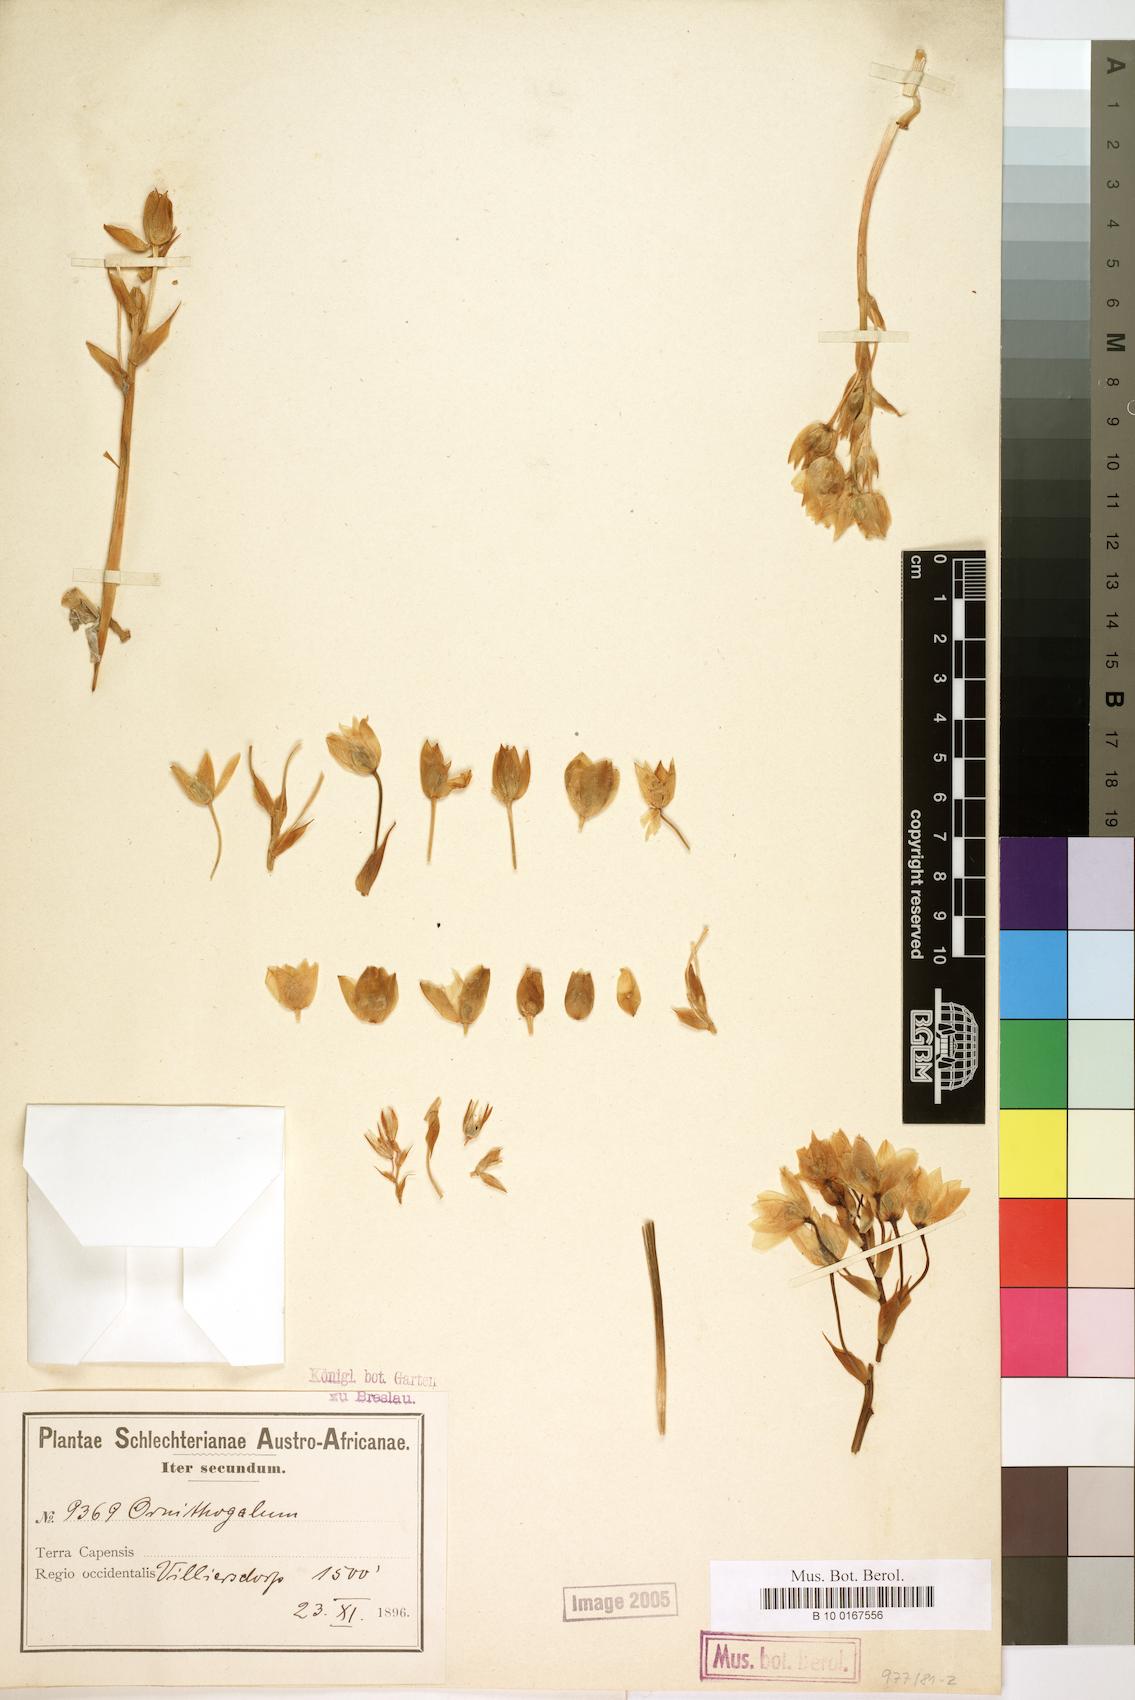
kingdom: Plantae
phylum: Tracheophyta
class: Liliopsida
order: Liliales
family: Liliaceae
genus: Ornithogalum
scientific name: Ornithogalum
